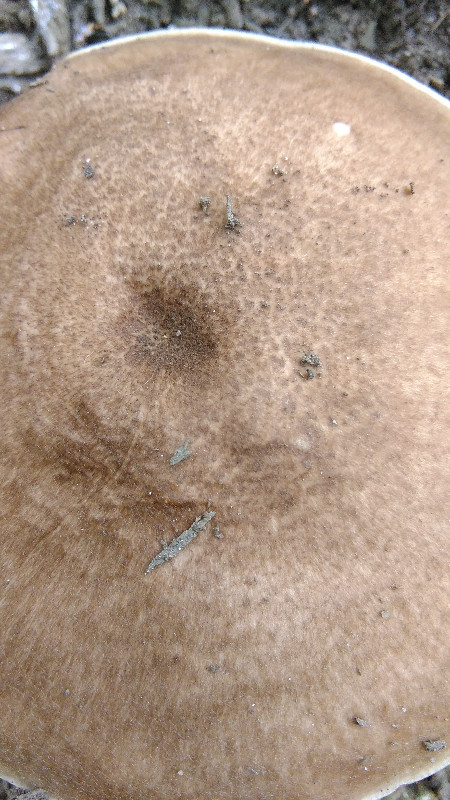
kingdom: Fungi
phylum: Basidiomycota
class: Agaricomycetes
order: Agaricales
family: Pluteaceae
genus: Pluteus
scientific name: Pluteus cervinus
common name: sodfarvet skærmhat
